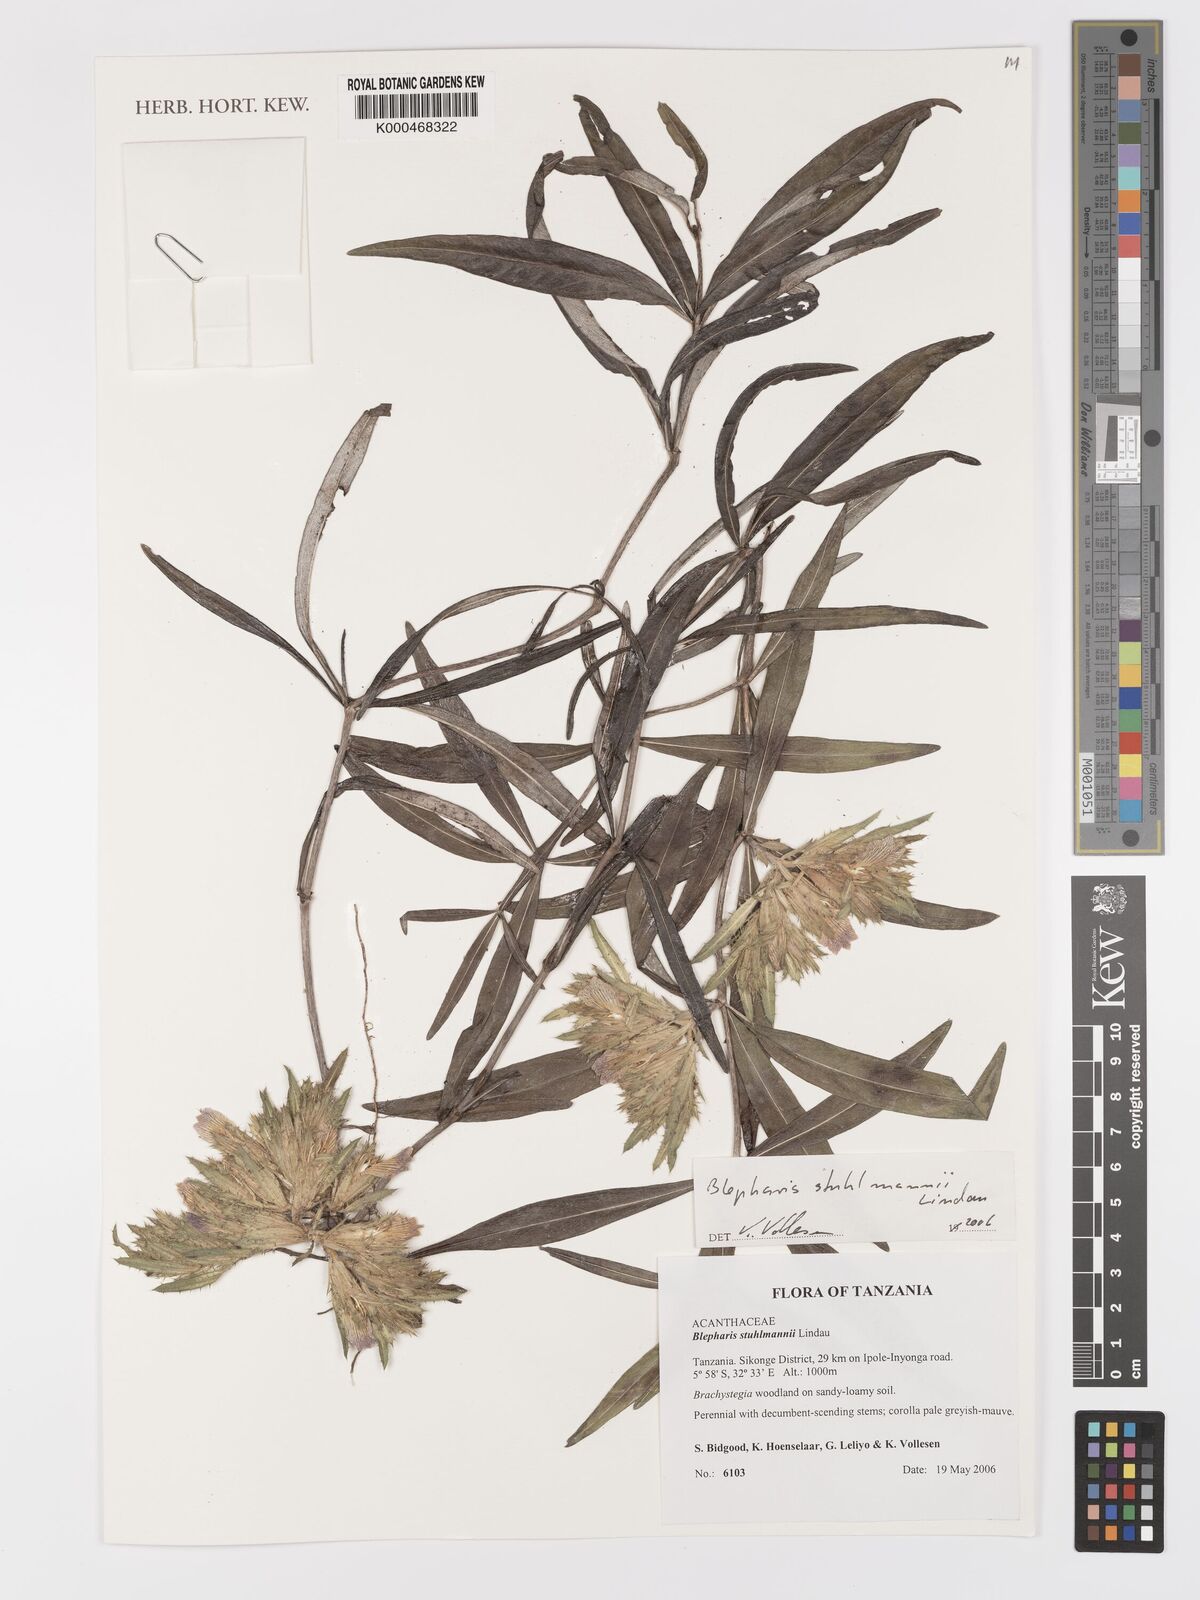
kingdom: Plantae
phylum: Tracheophyta
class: Magnoliopsida
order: Lamiales
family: Acanthaceae
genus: Blepharis
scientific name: Blepharis stuhlmannii
